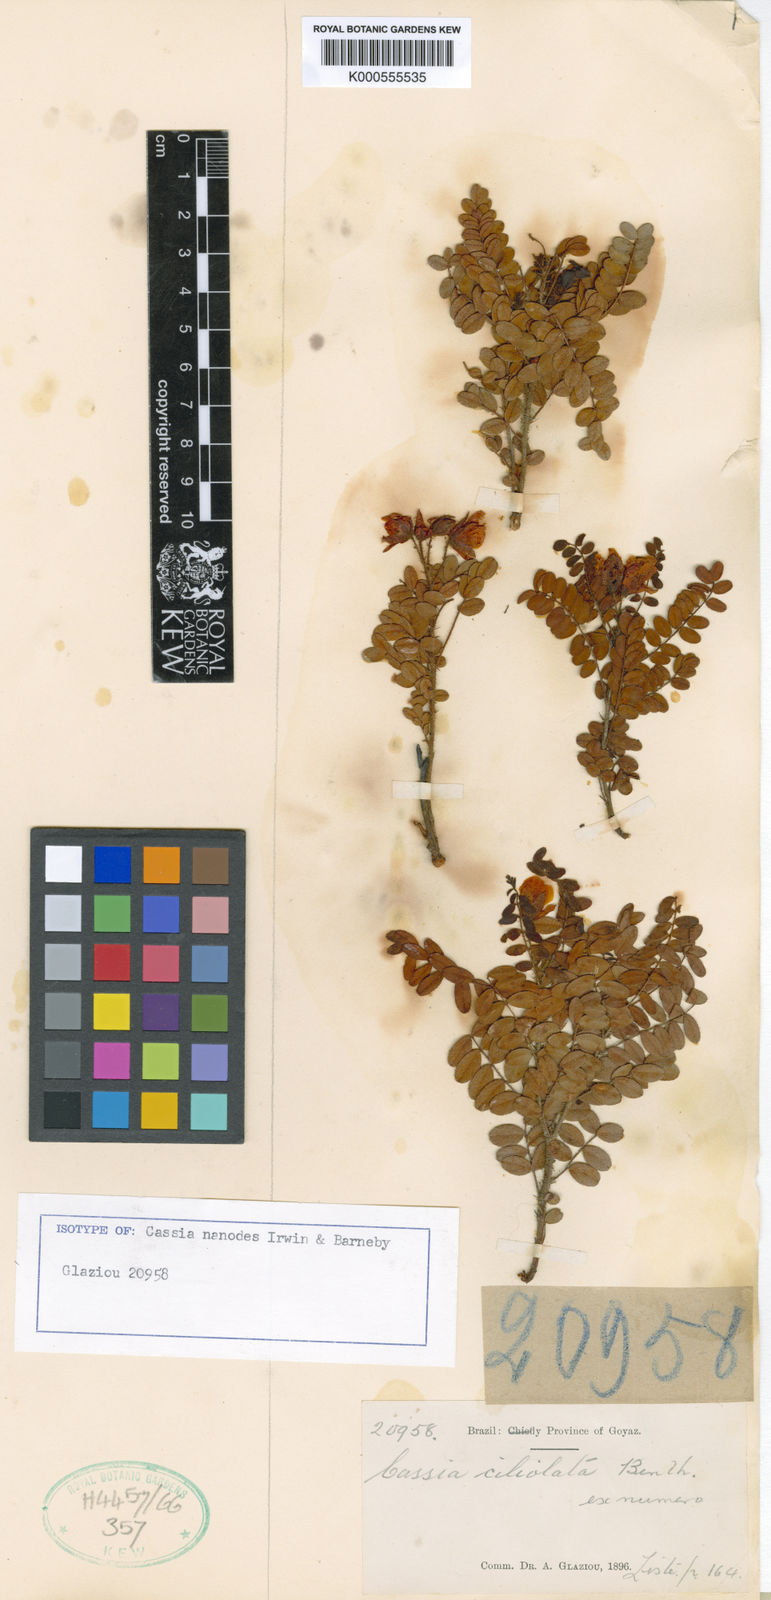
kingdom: Plantae
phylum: Tracheophyta
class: Magnoliopsida
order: Fabales
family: Fabaceae
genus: Chamaecrista
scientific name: Chamaecrista nanodes
